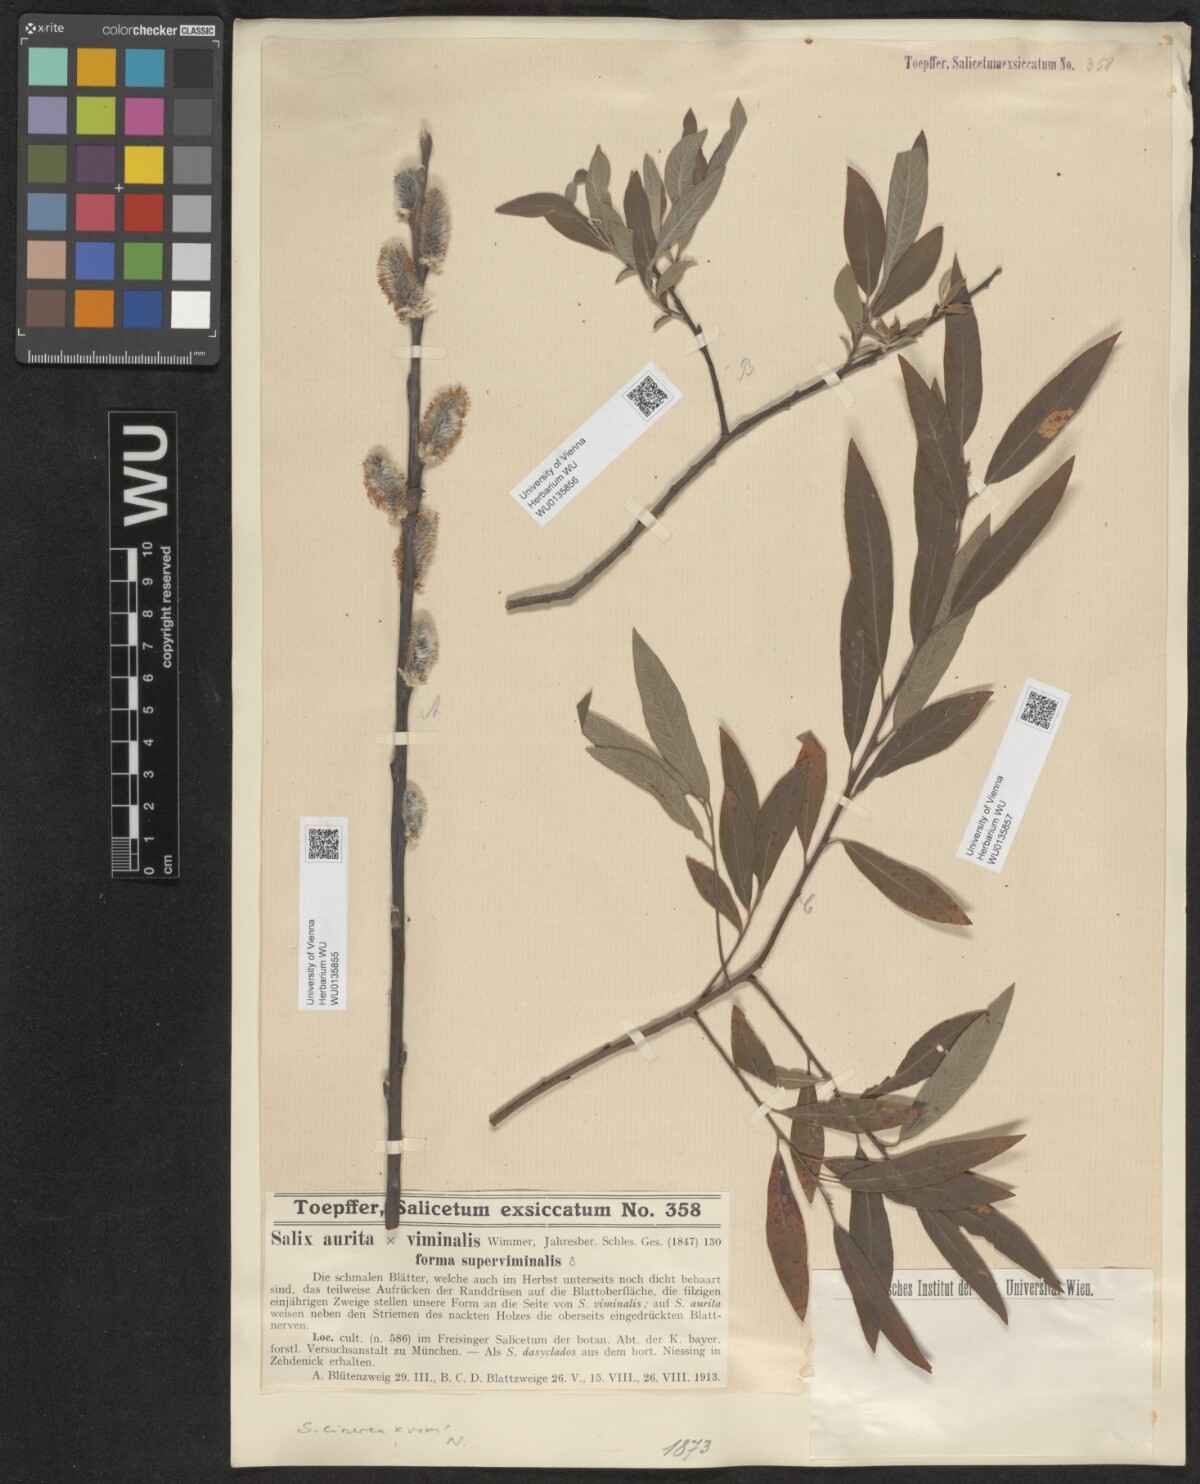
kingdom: Plantae
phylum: Tracheophyta
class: Magnoliopsida
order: Malpighiales
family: Salicaceae
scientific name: Salicaceae
